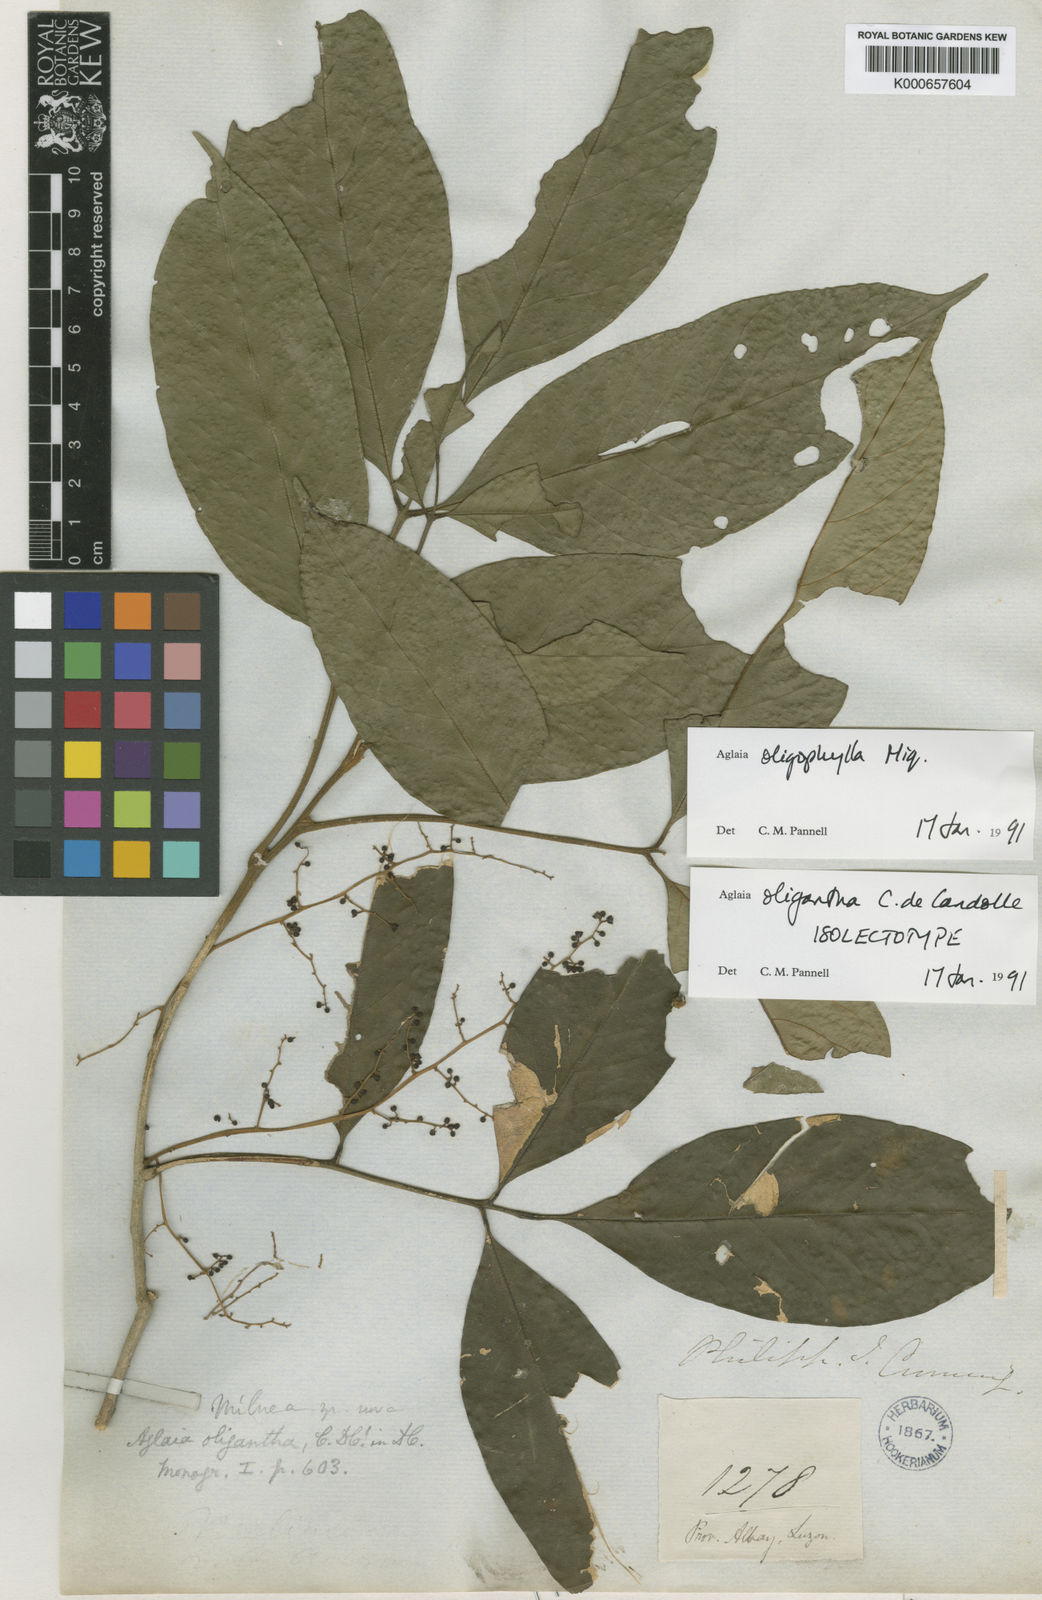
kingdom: Plantae
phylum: Tracheophyta
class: Magnoliopsida
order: Sapindales
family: Meliaceae
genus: Aglaia
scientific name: Aglaia oligophylla
